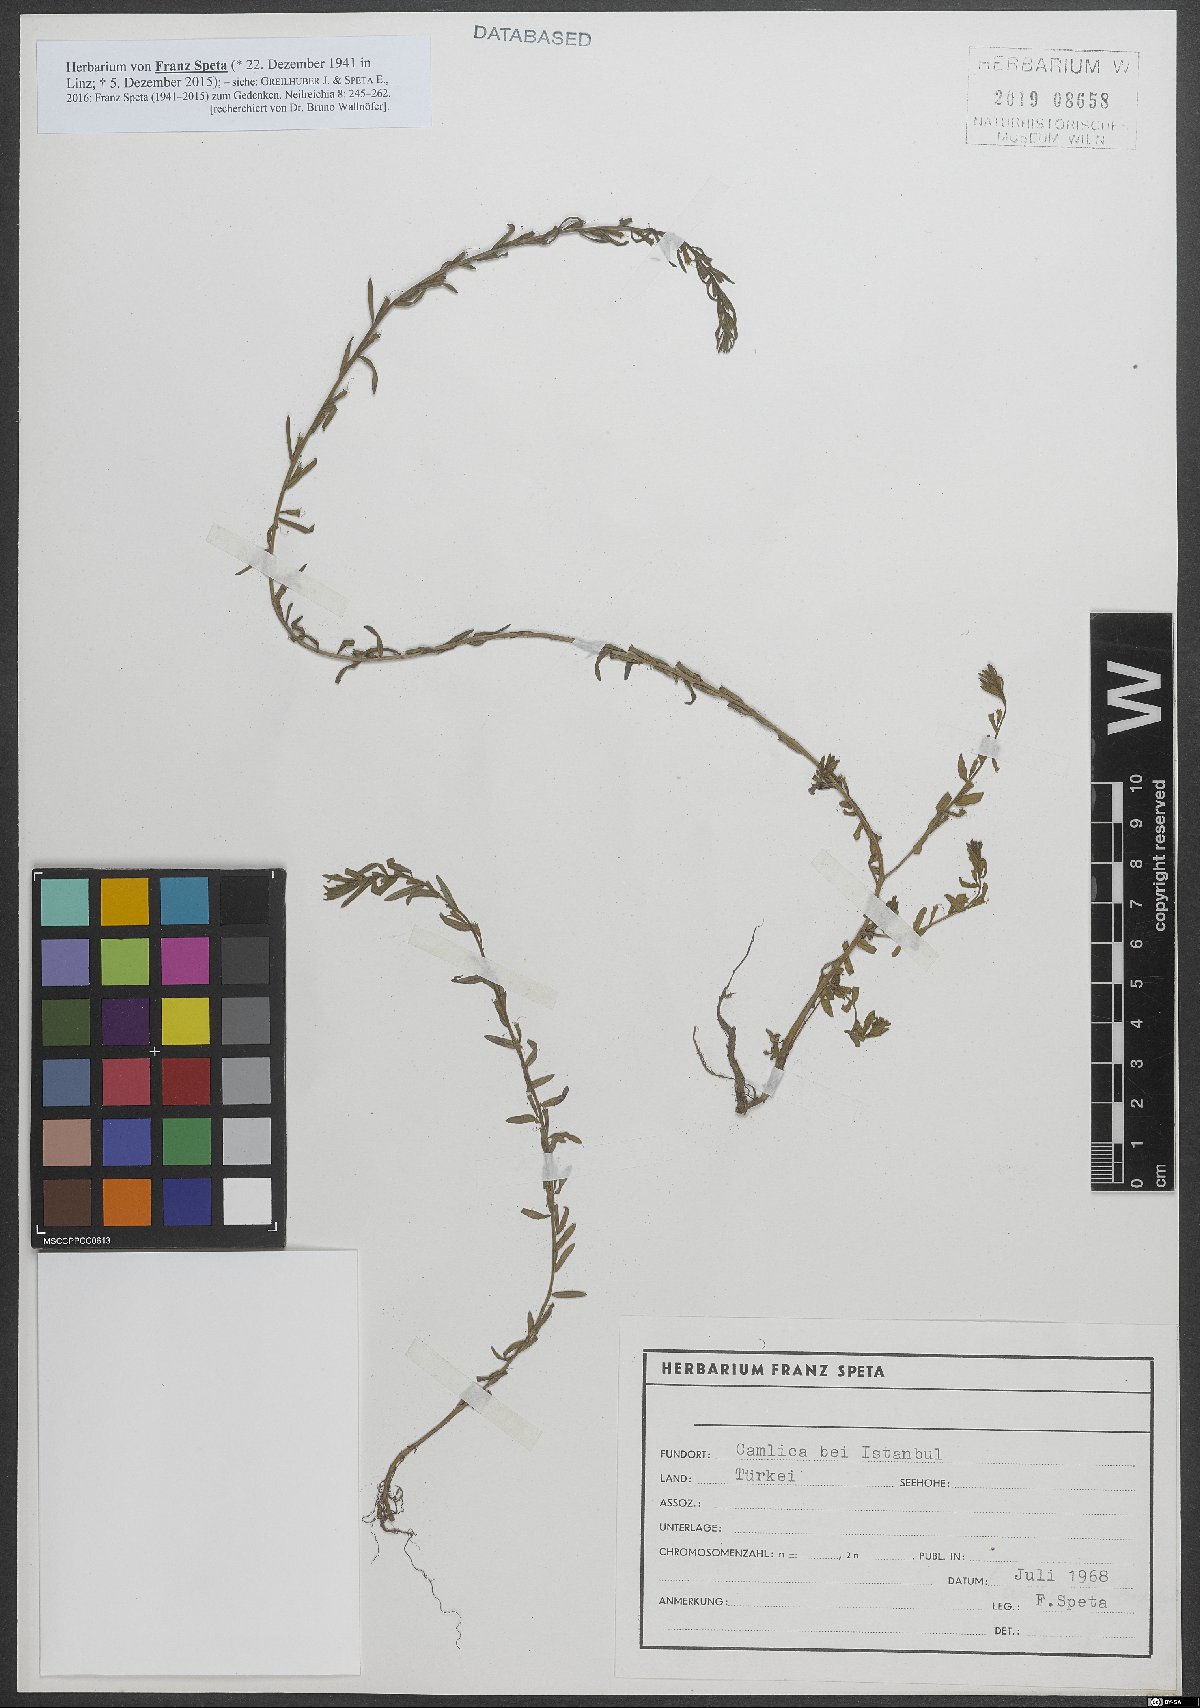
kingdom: Plantae
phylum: Tracheophyta
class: Magnoliopsida
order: Myrtales
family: Lythraceae
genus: Lythrum
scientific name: Lythrum hyssopifolia
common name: Grass-poly
